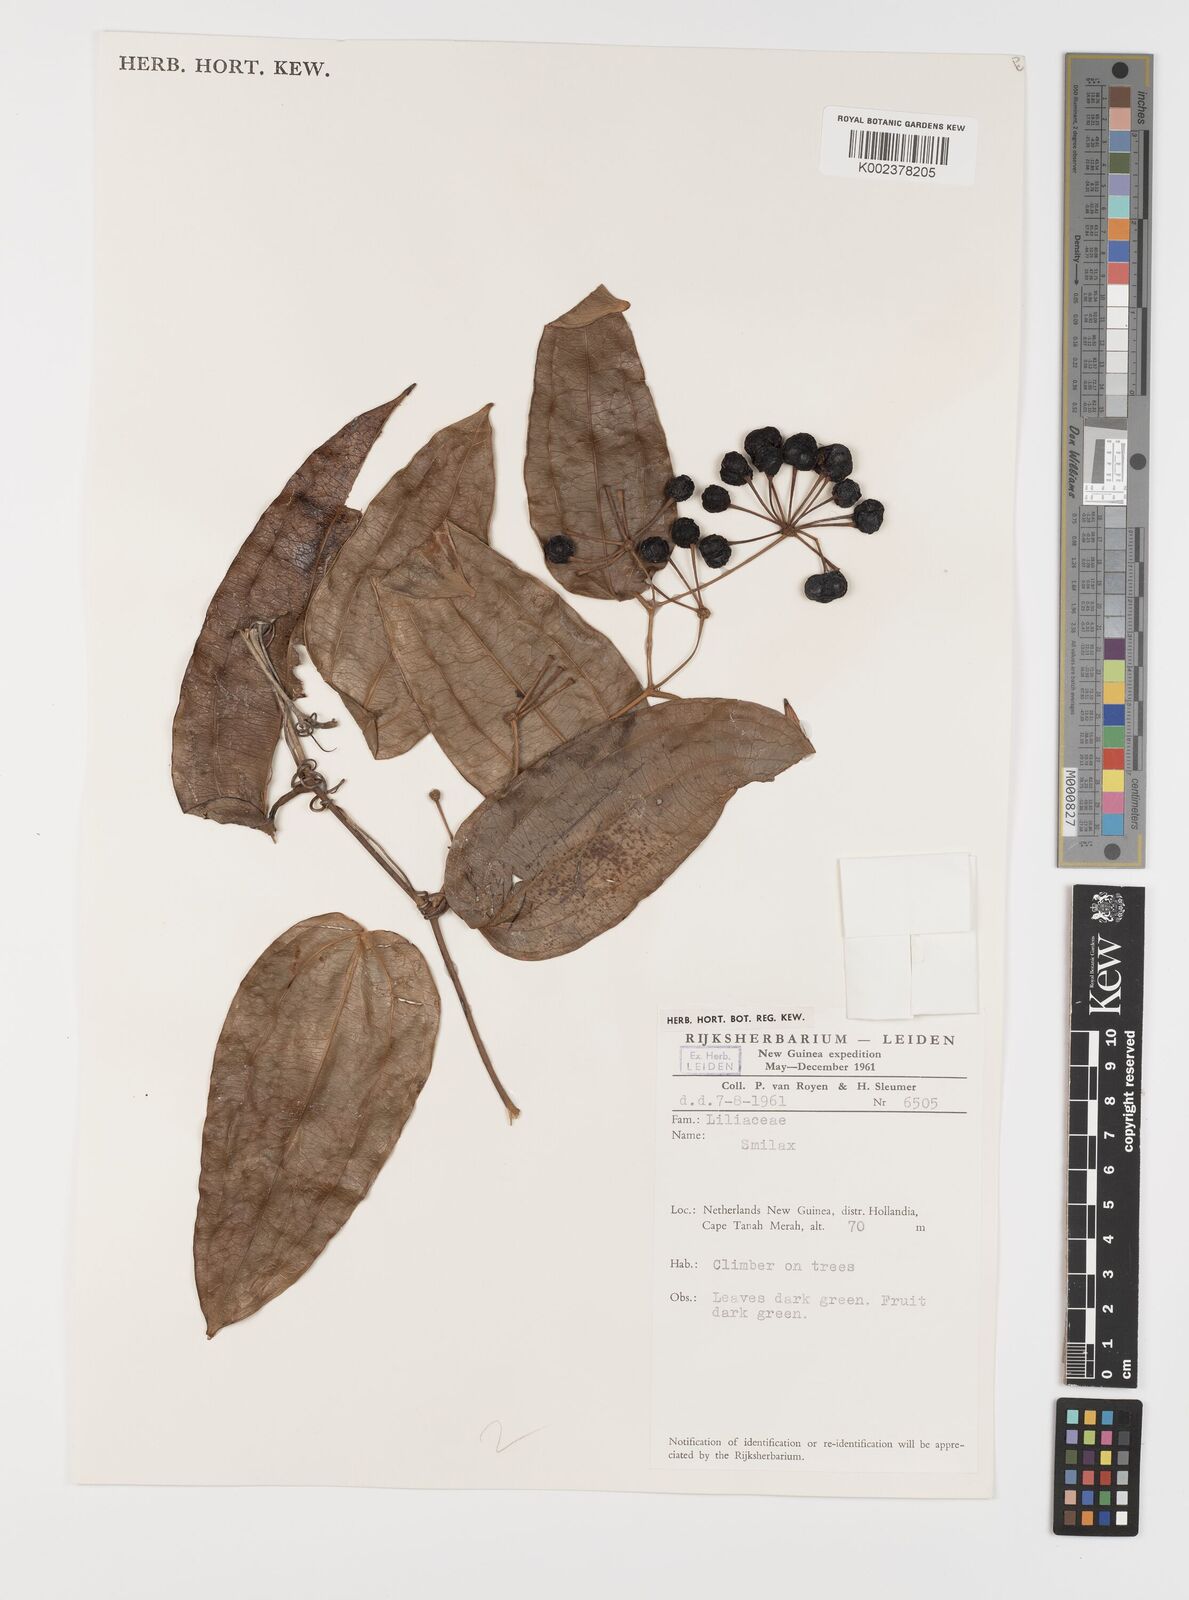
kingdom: Plantae
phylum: Tracheophyta
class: Liliopsida
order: Liliales
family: Smilacaceae
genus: Smilax
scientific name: Smilax
